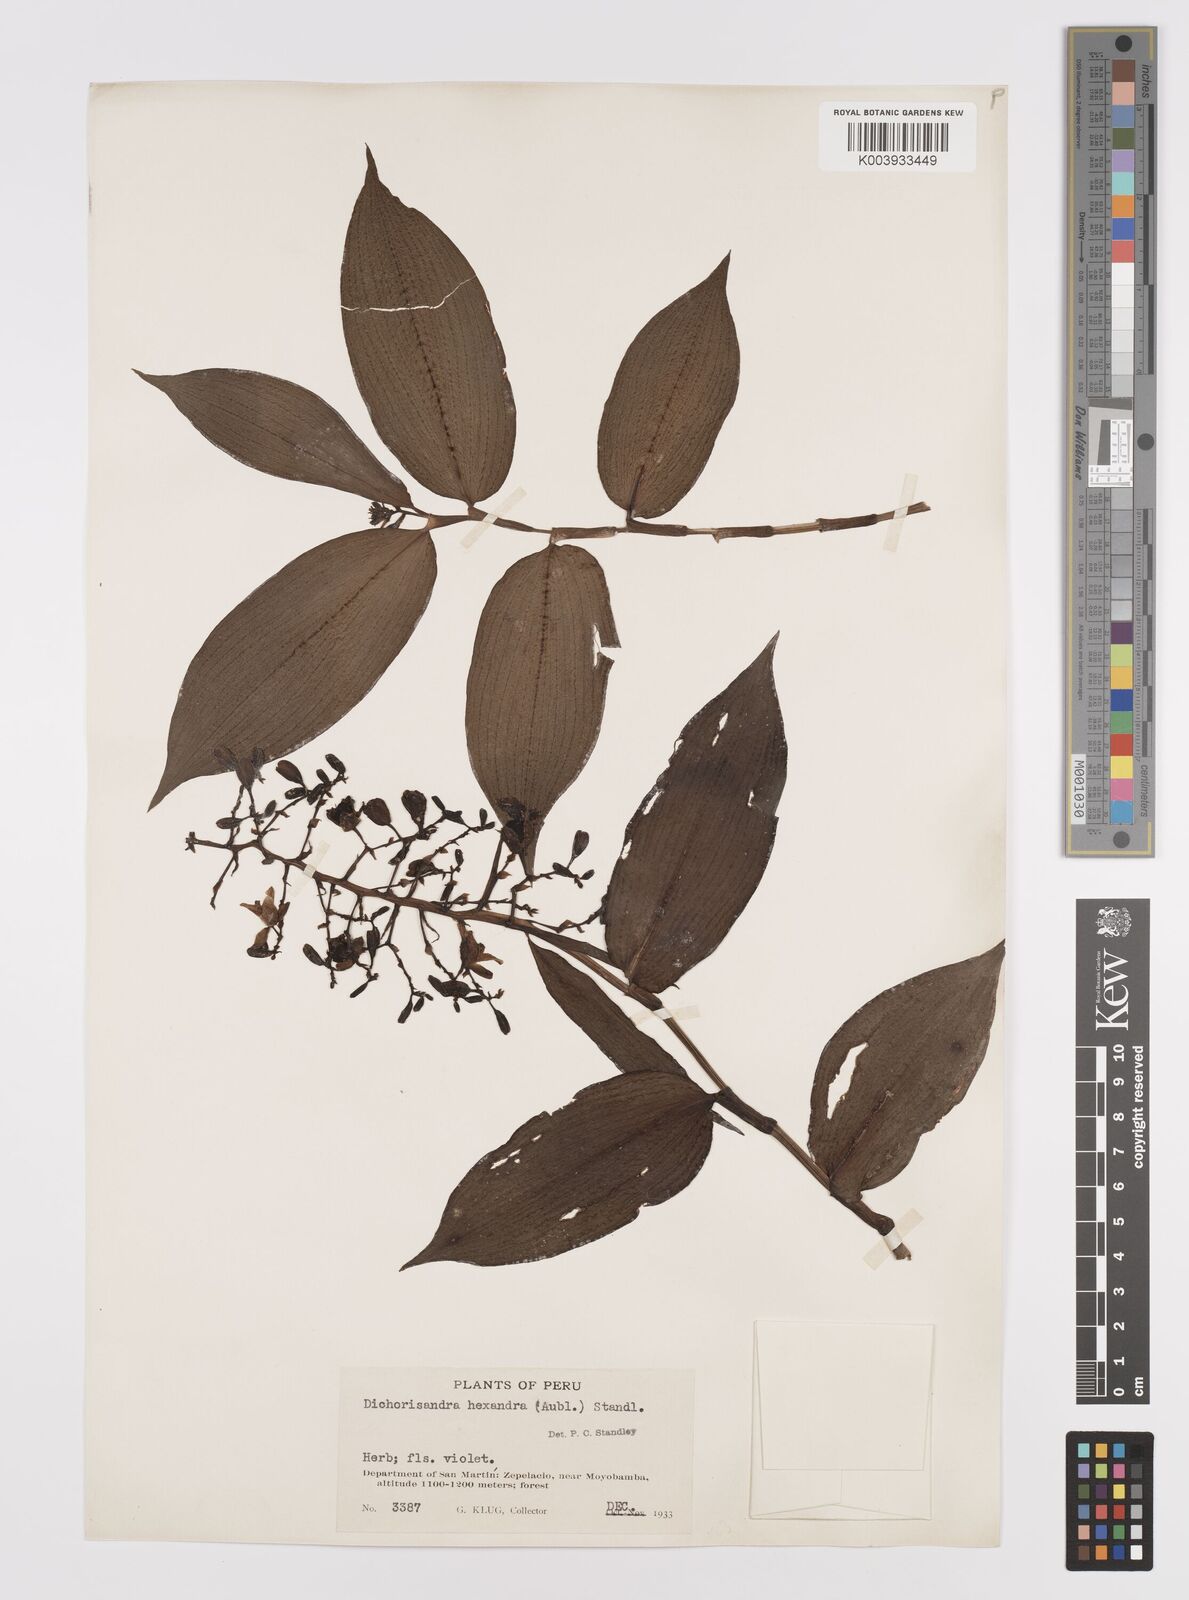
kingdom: Plantae
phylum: Tracheophyta
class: Liliopsida
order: Commelinales
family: Commelinaceae
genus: Dichorisandra
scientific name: Dichorisandra hexandra
